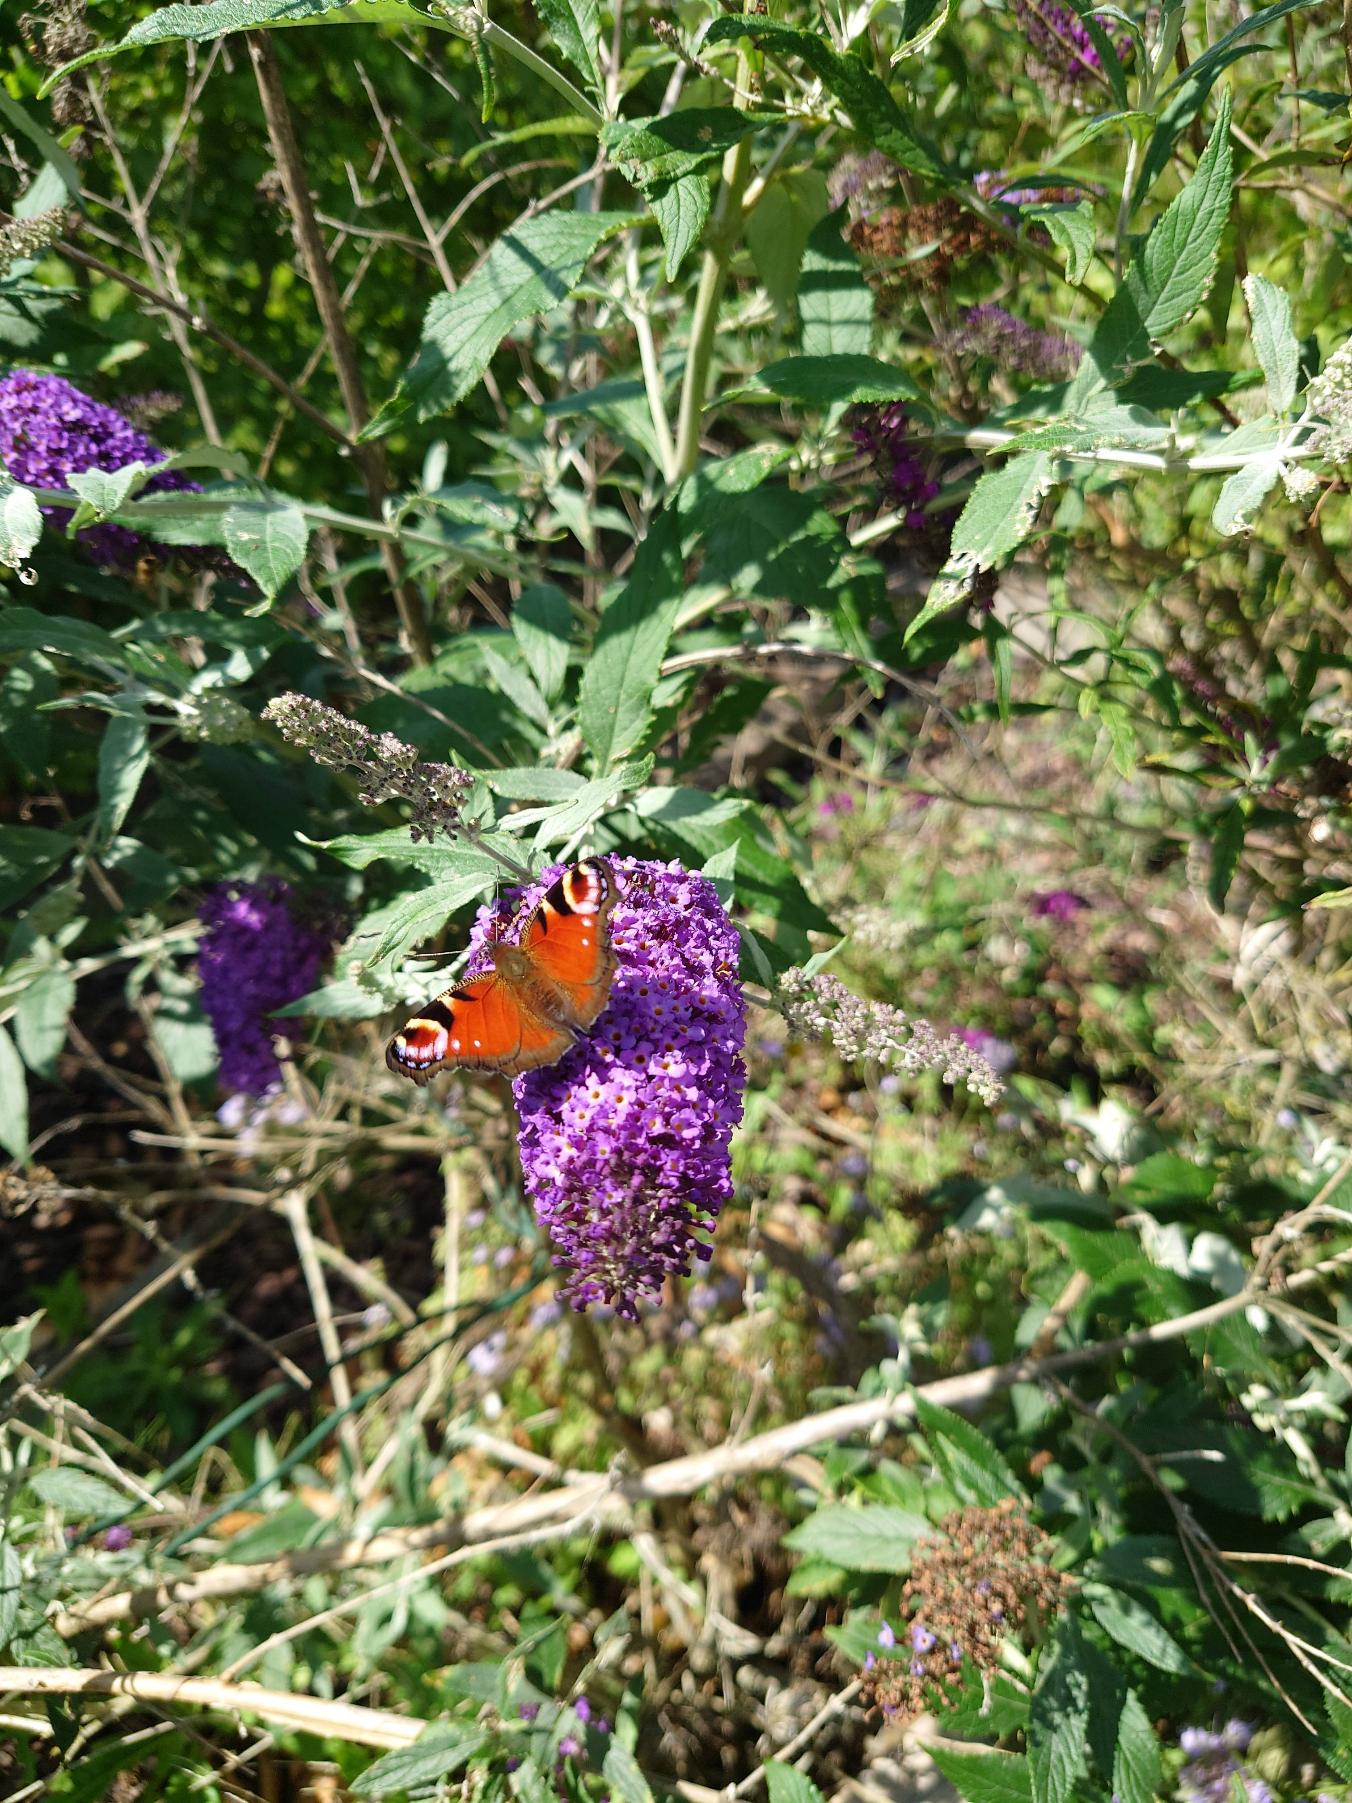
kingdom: Animalia
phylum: Arthropoda
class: Insecta
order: Lepidoptera
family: Nymphalidae
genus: Aglais
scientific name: Aglais io
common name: Dagpåfugleøje
